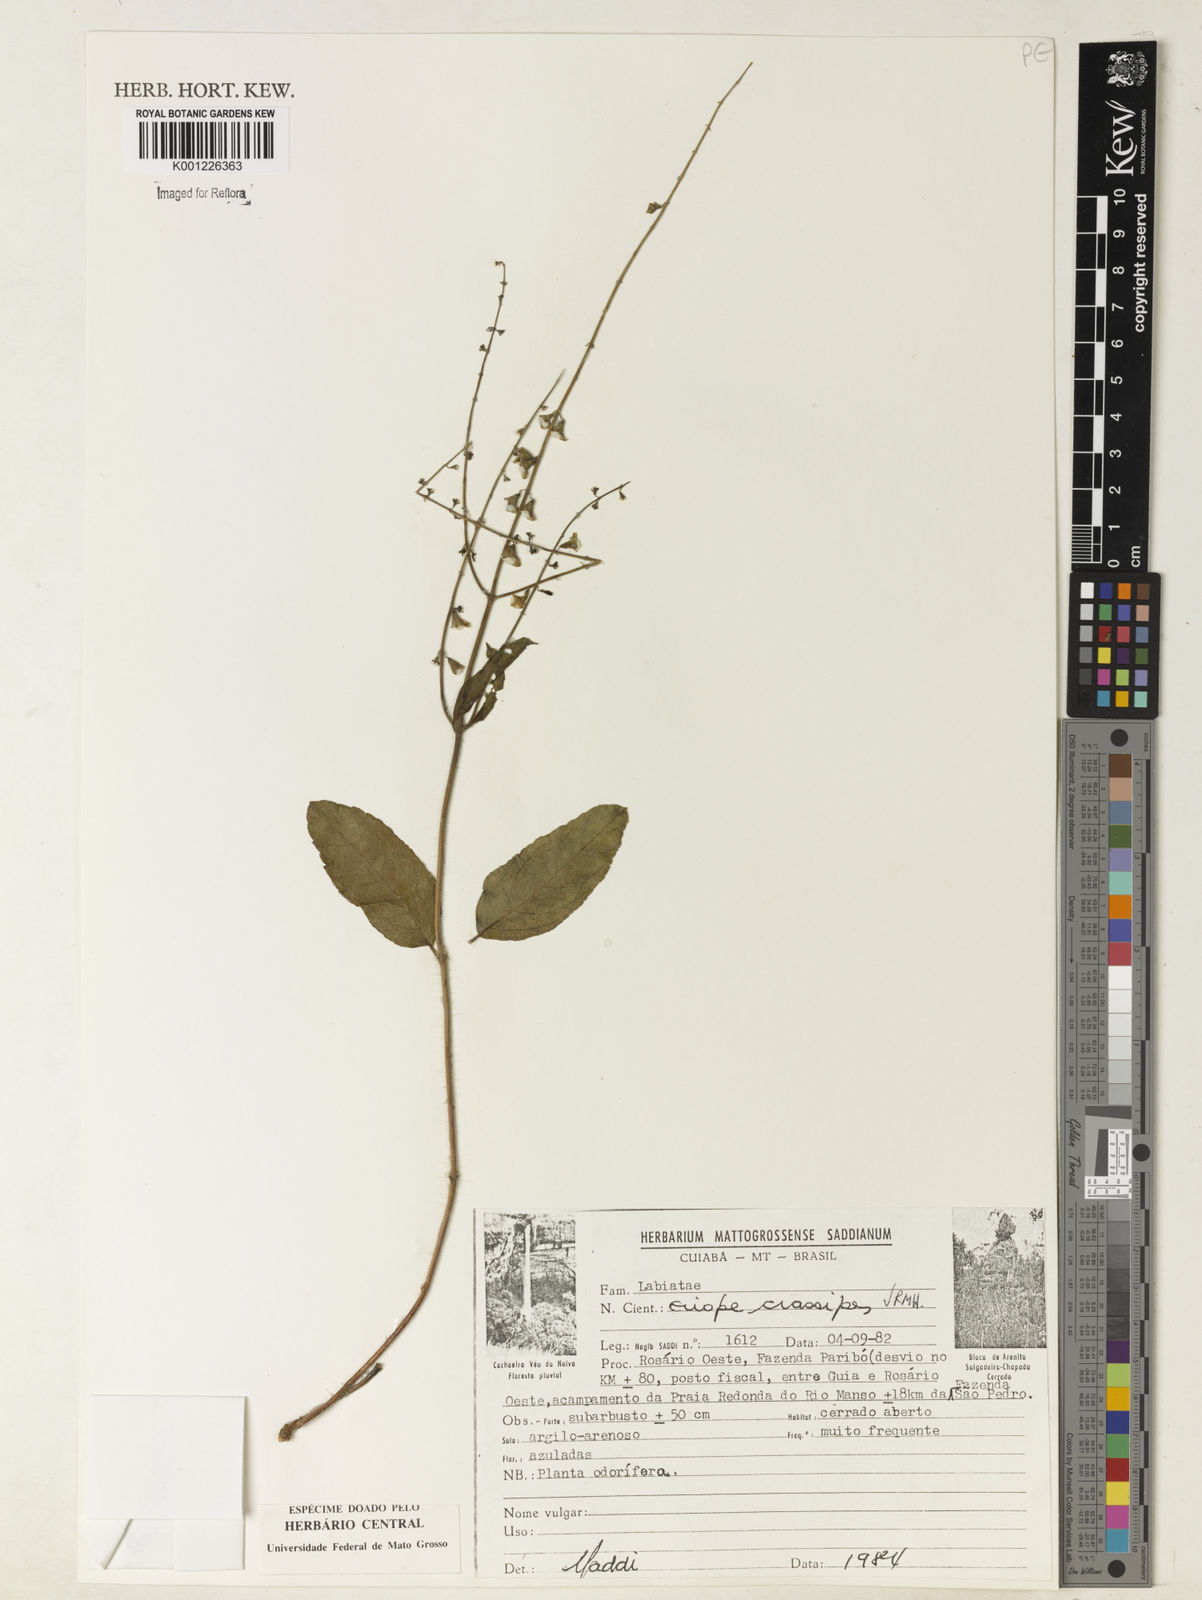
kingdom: Plantae
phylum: Tracheophyta
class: Magnoliopsida
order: Lamiales
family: Lamiaceae
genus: Eriope
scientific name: Eriope crassipes
